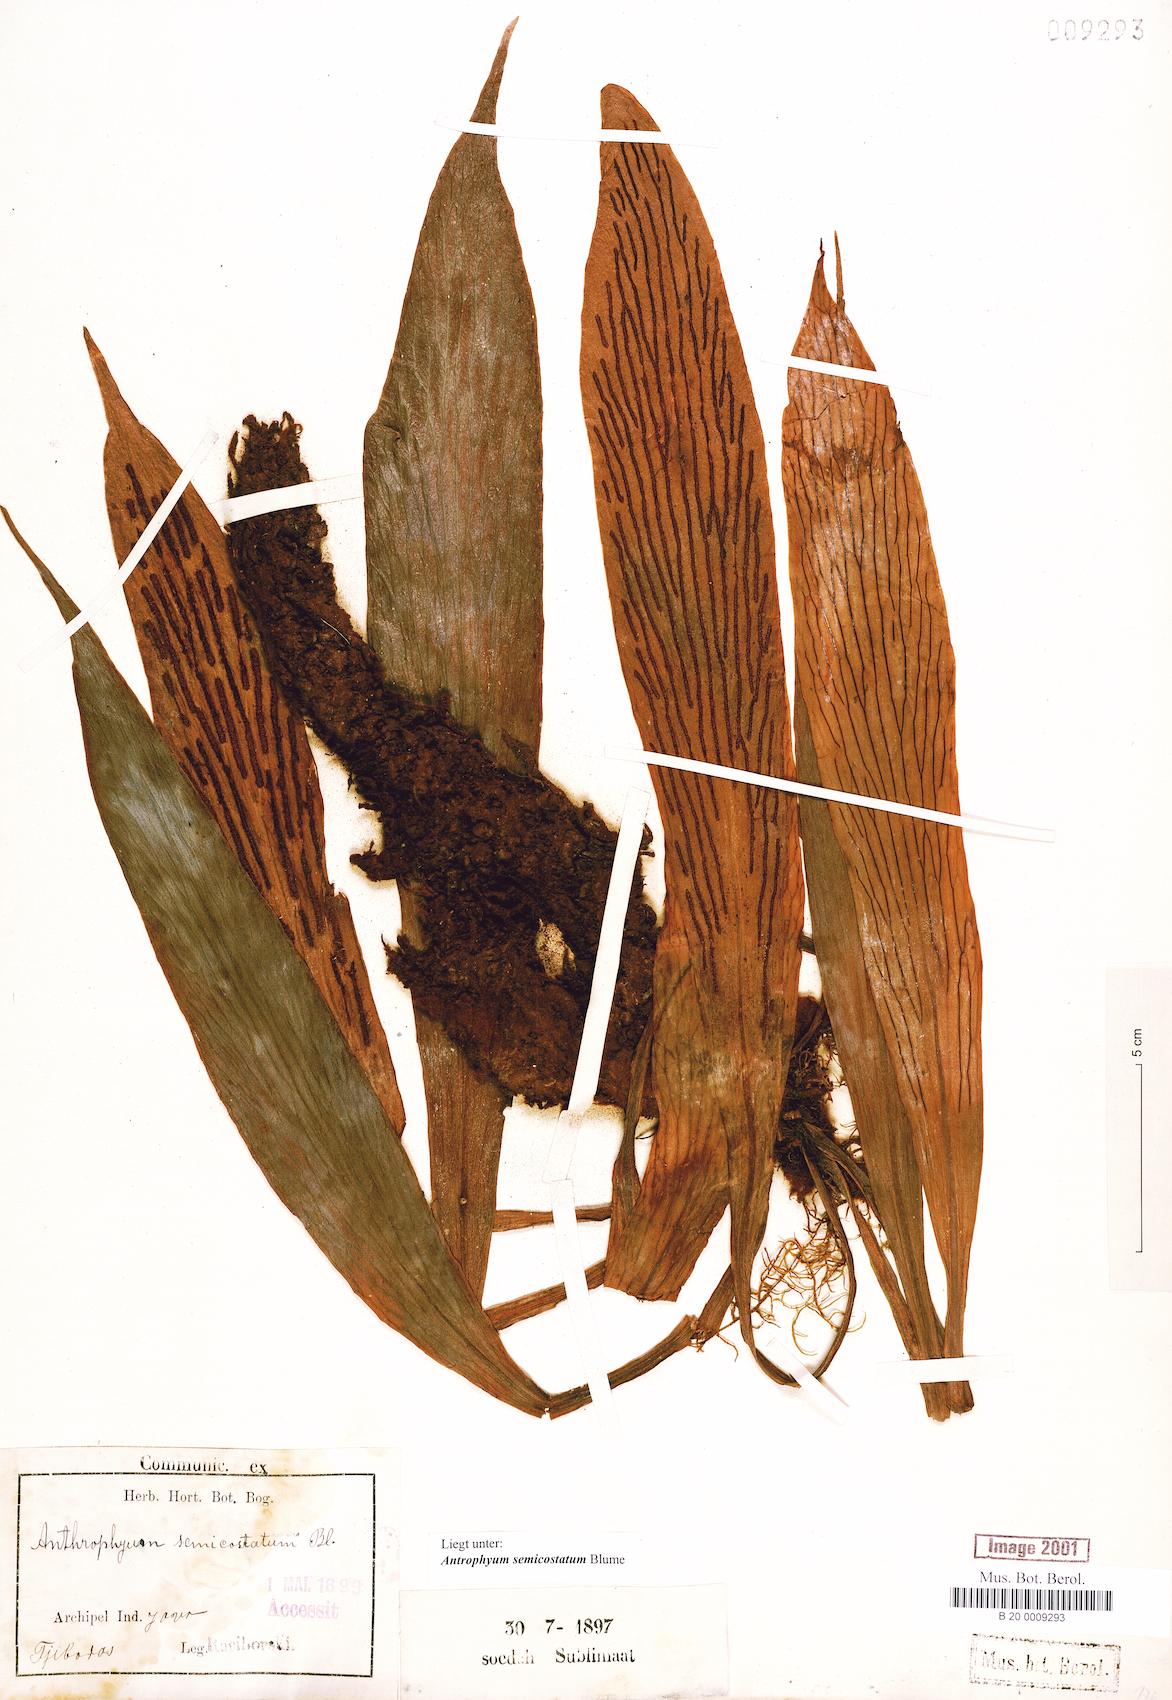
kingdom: Plantae
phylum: Tracheophyta
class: Polypodiopsida
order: Polypodiales
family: Pteridaceae
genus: Antrophyum
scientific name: Antrophyum semicostatum
